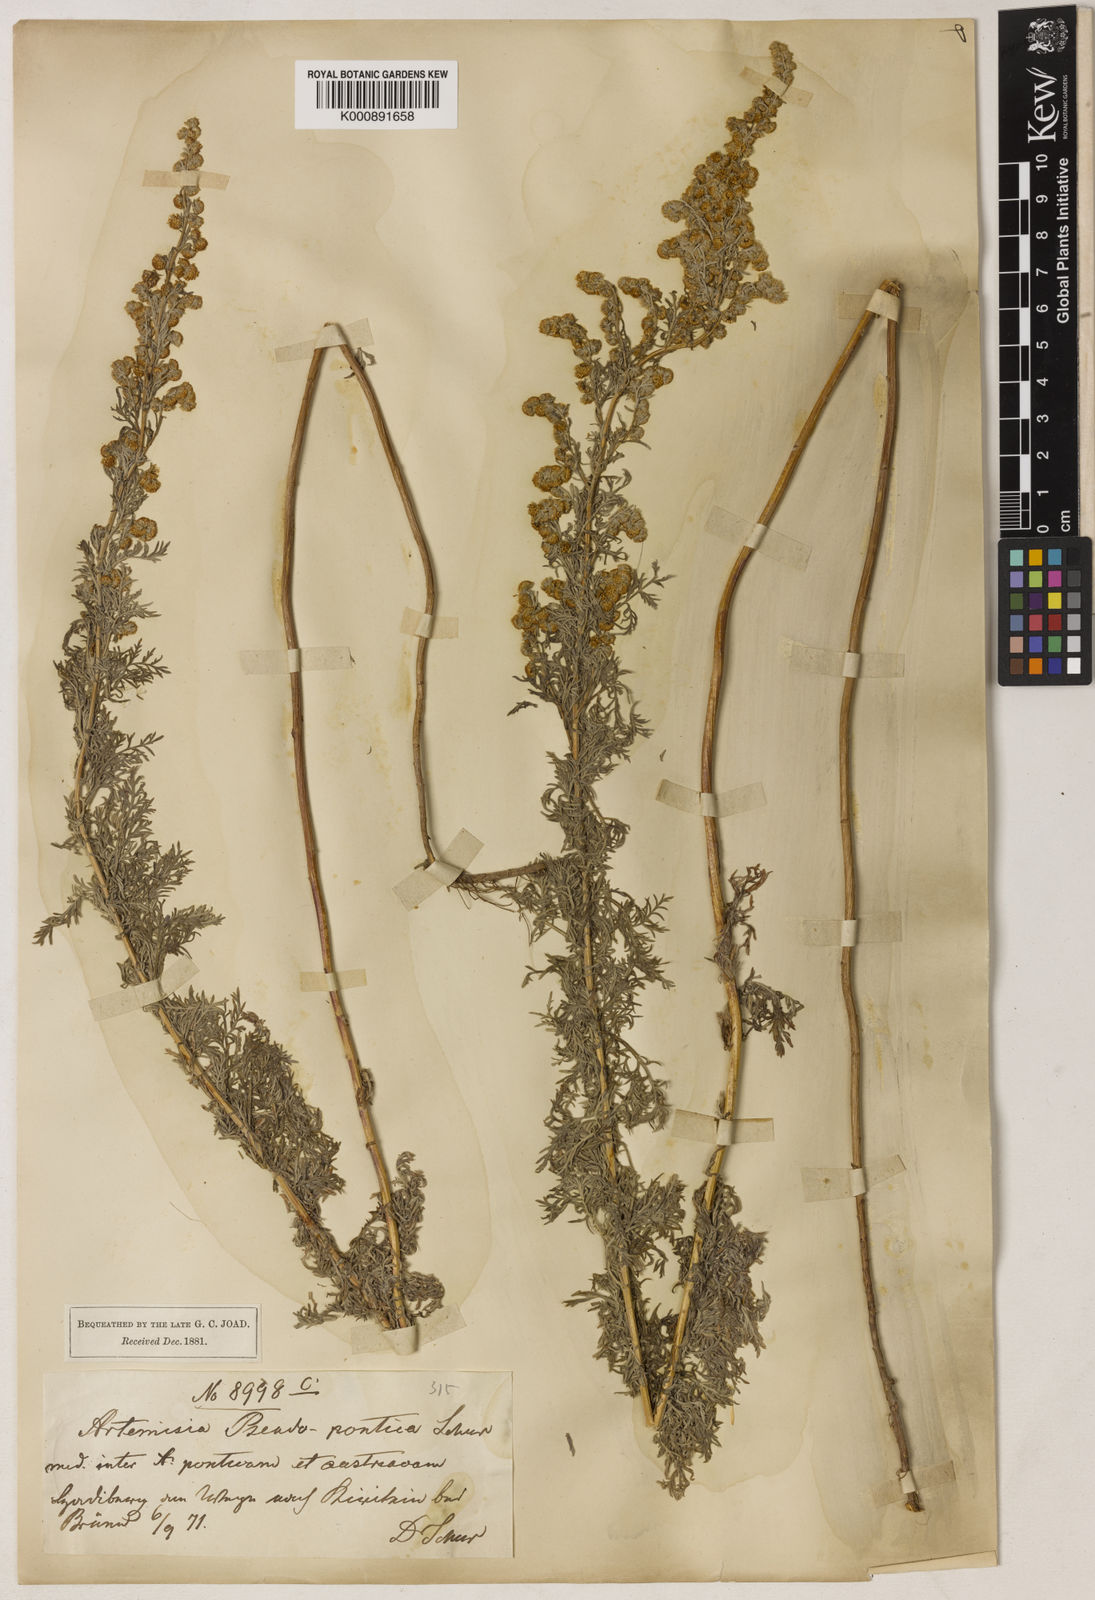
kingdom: Plantae
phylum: Tracheophyta
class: Magnoliopsida
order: Asterales
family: Asteraceae
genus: Artemisia
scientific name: Artemisia austriaca
